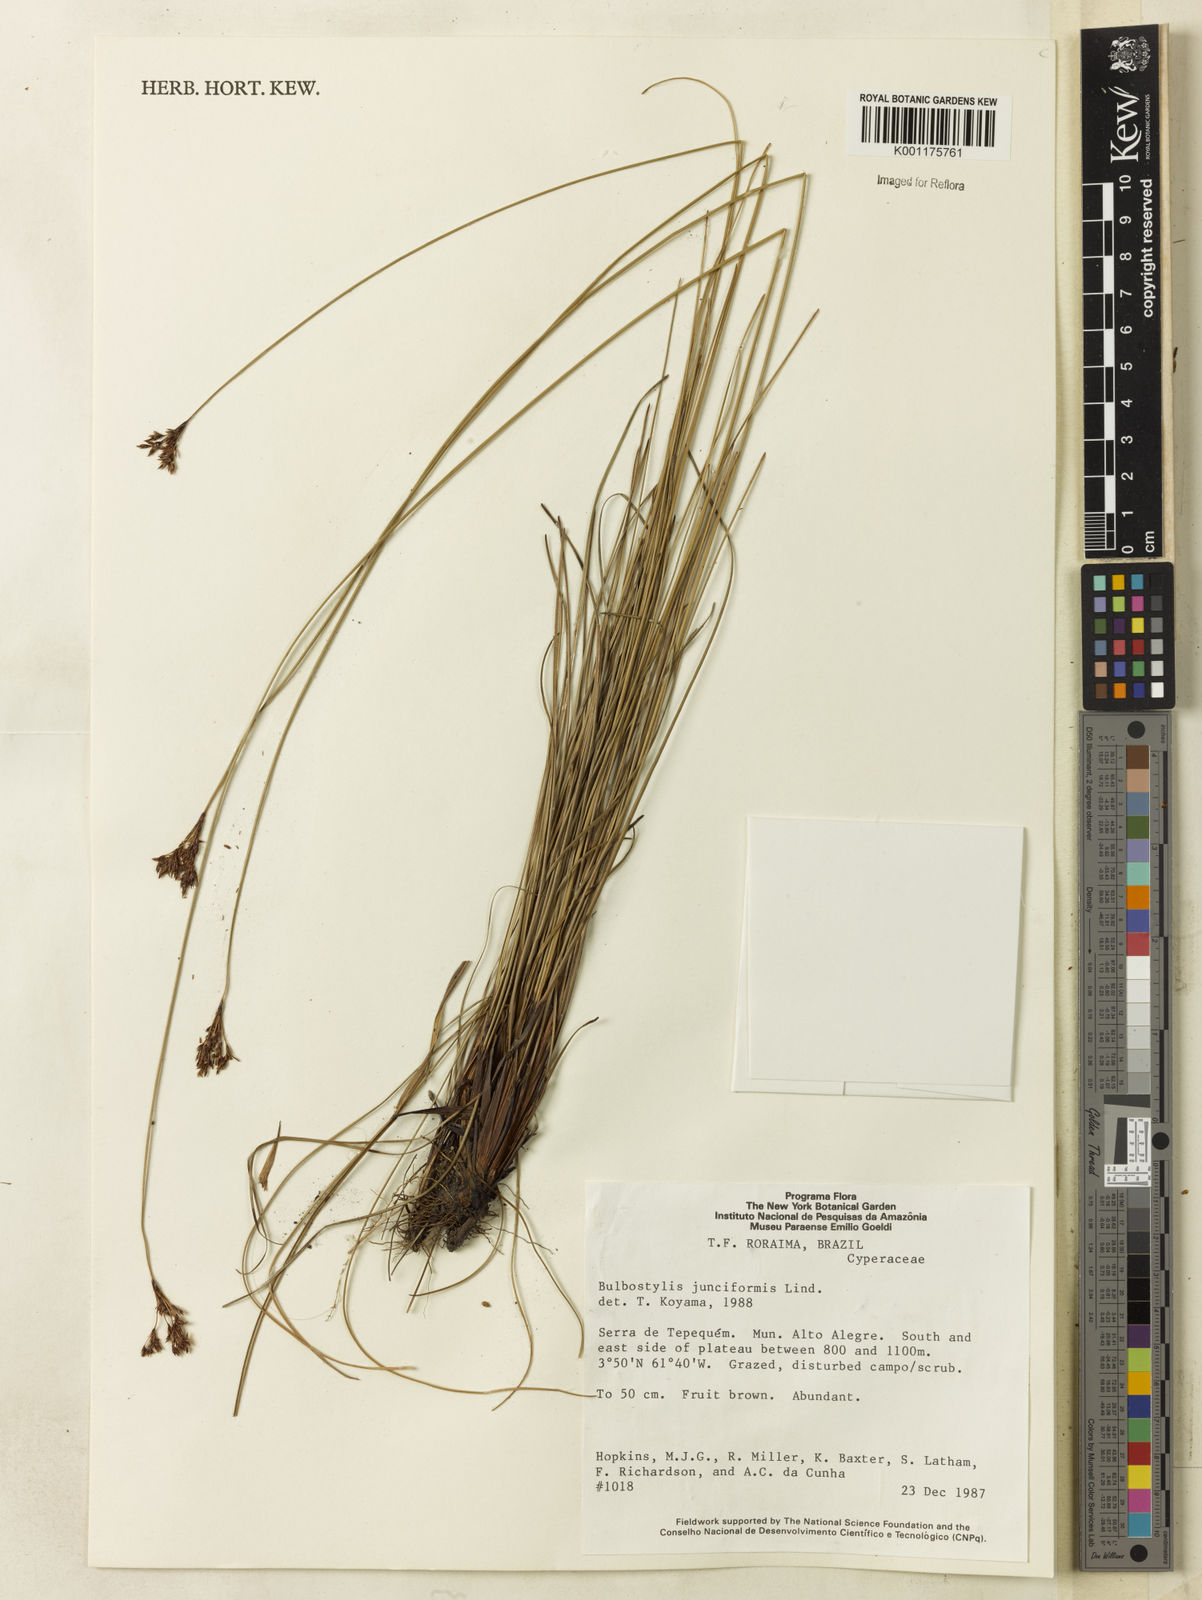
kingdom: Plantae
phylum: Tracheophyta
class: Liliopsida
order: Poales
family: Cyperaceae
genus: Bulbostylis
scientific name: Bulbostylis junciformis
